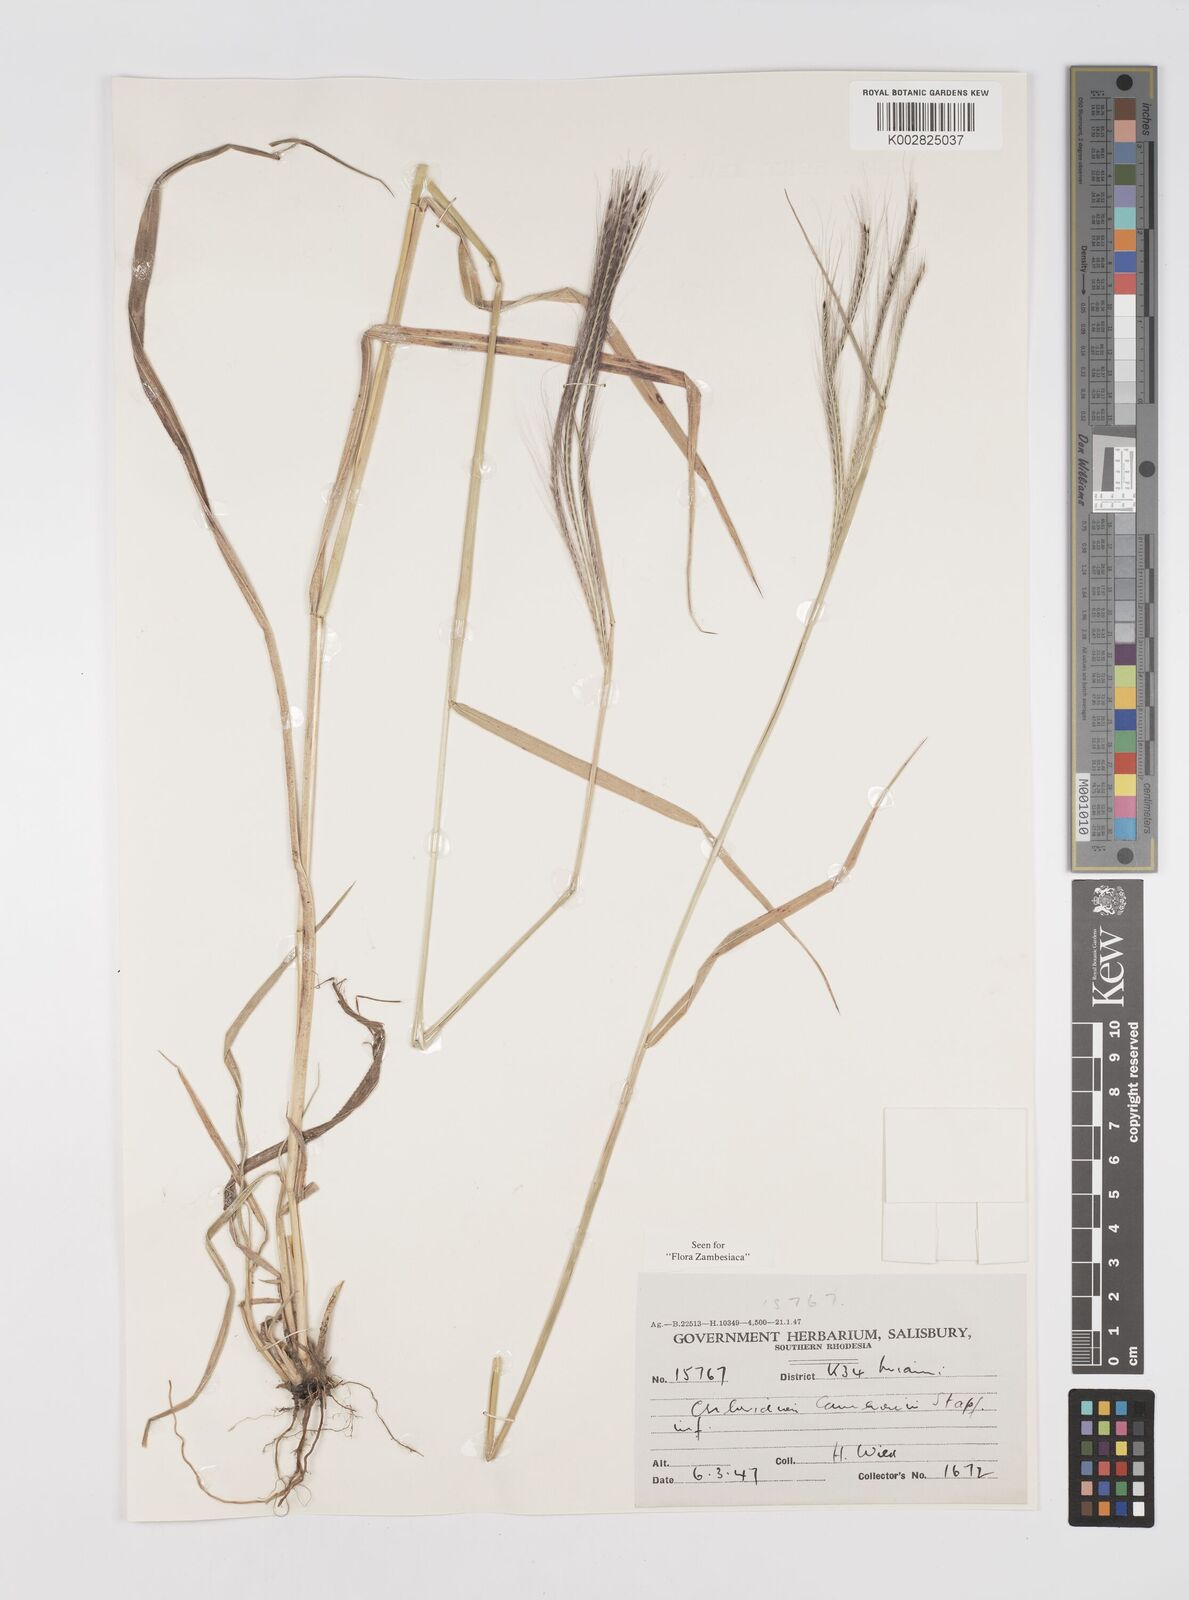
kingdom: Plantae
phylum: Tracheophyta
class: Liliopsida
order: Poales
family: Poaceae
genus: Stereochlaena
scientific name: Stereochlaena cameronii
